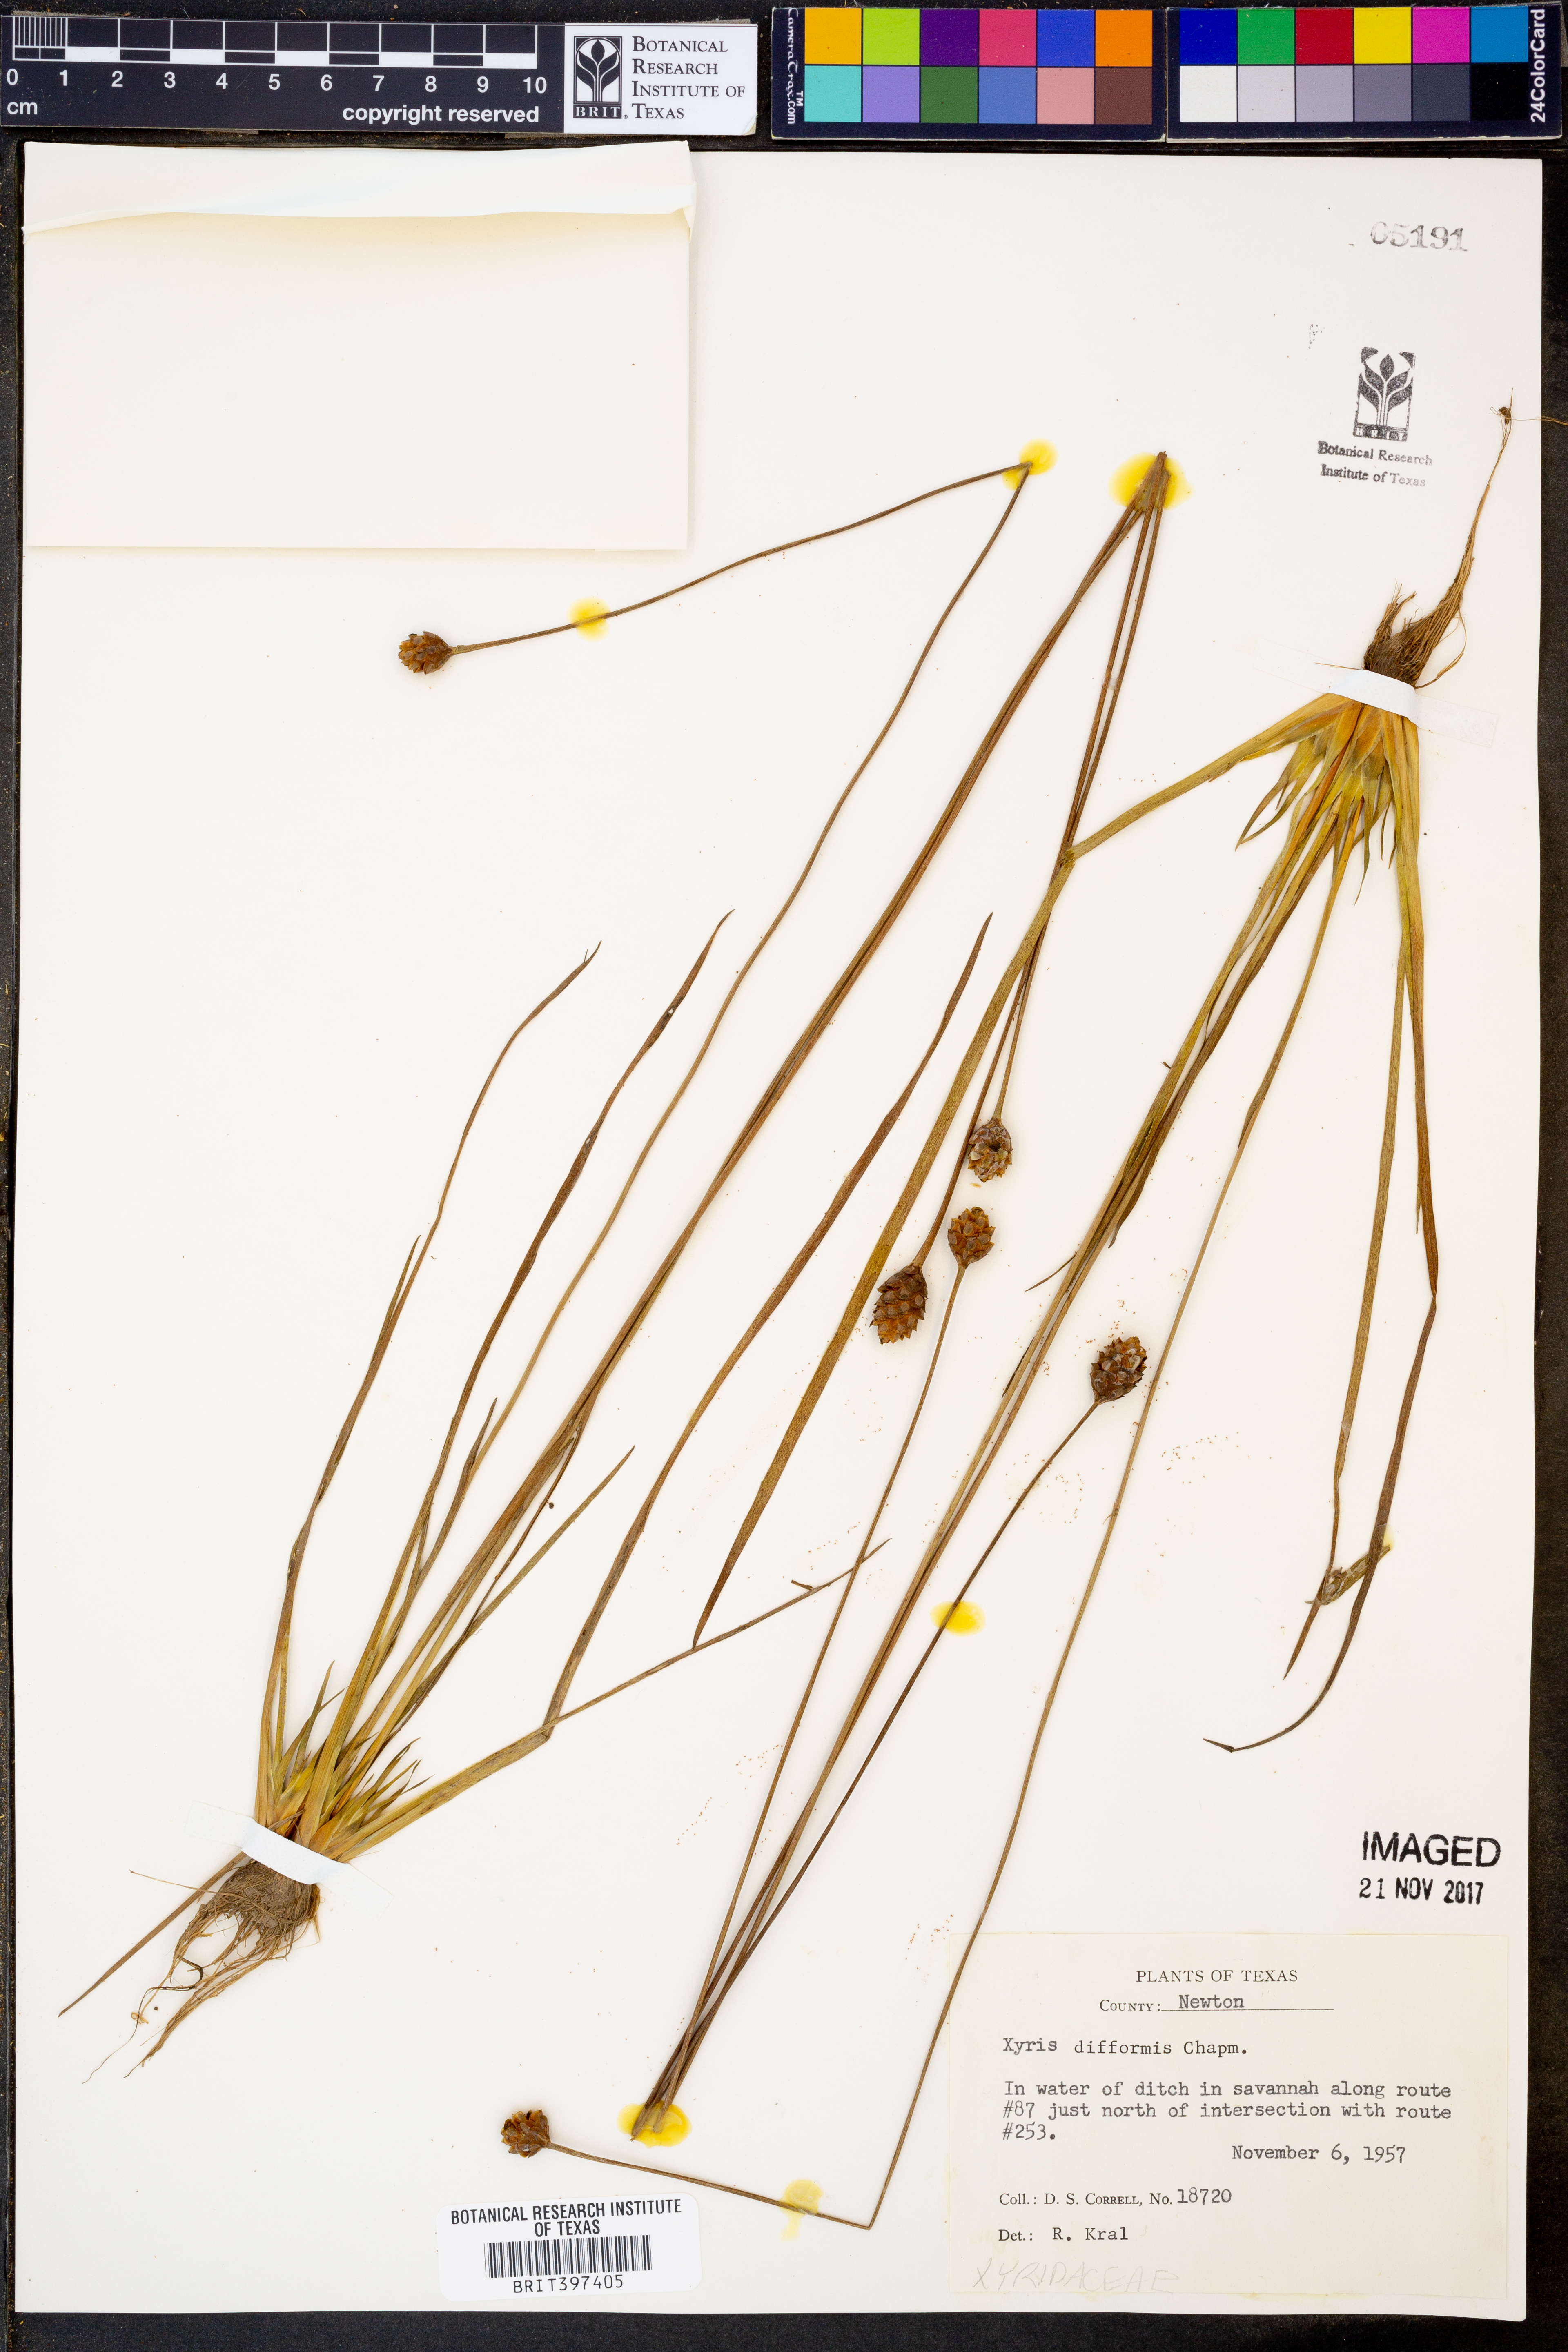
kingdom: Plantae
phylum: Tracheophyta
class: Liliopsida
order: Poales
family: Xyridaceae
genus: Xyris
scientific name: Xyris difformis
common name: Bog yellow-eyed-grass
